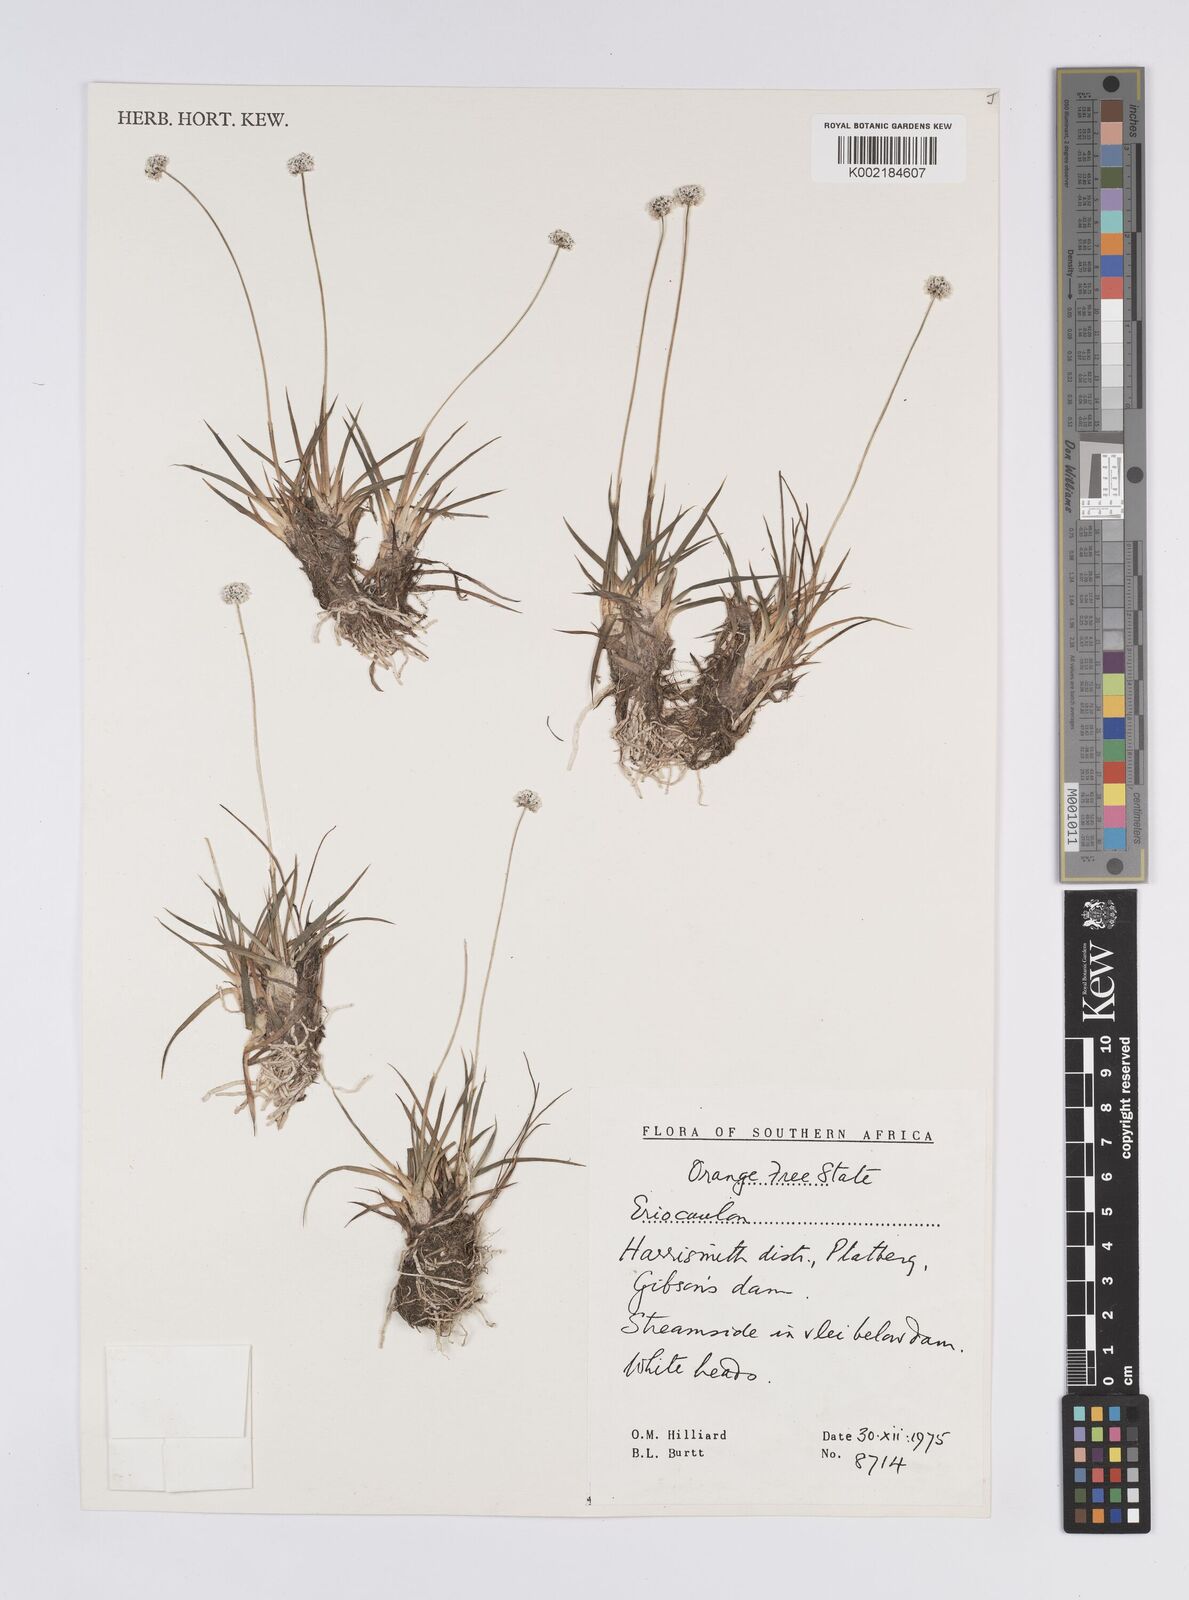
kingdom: Plantae
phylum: Tracheophyta
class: Liliopsida
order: Poales
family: Eriocaulaceae
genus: Eriocaulon
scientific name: Eriocaulon
